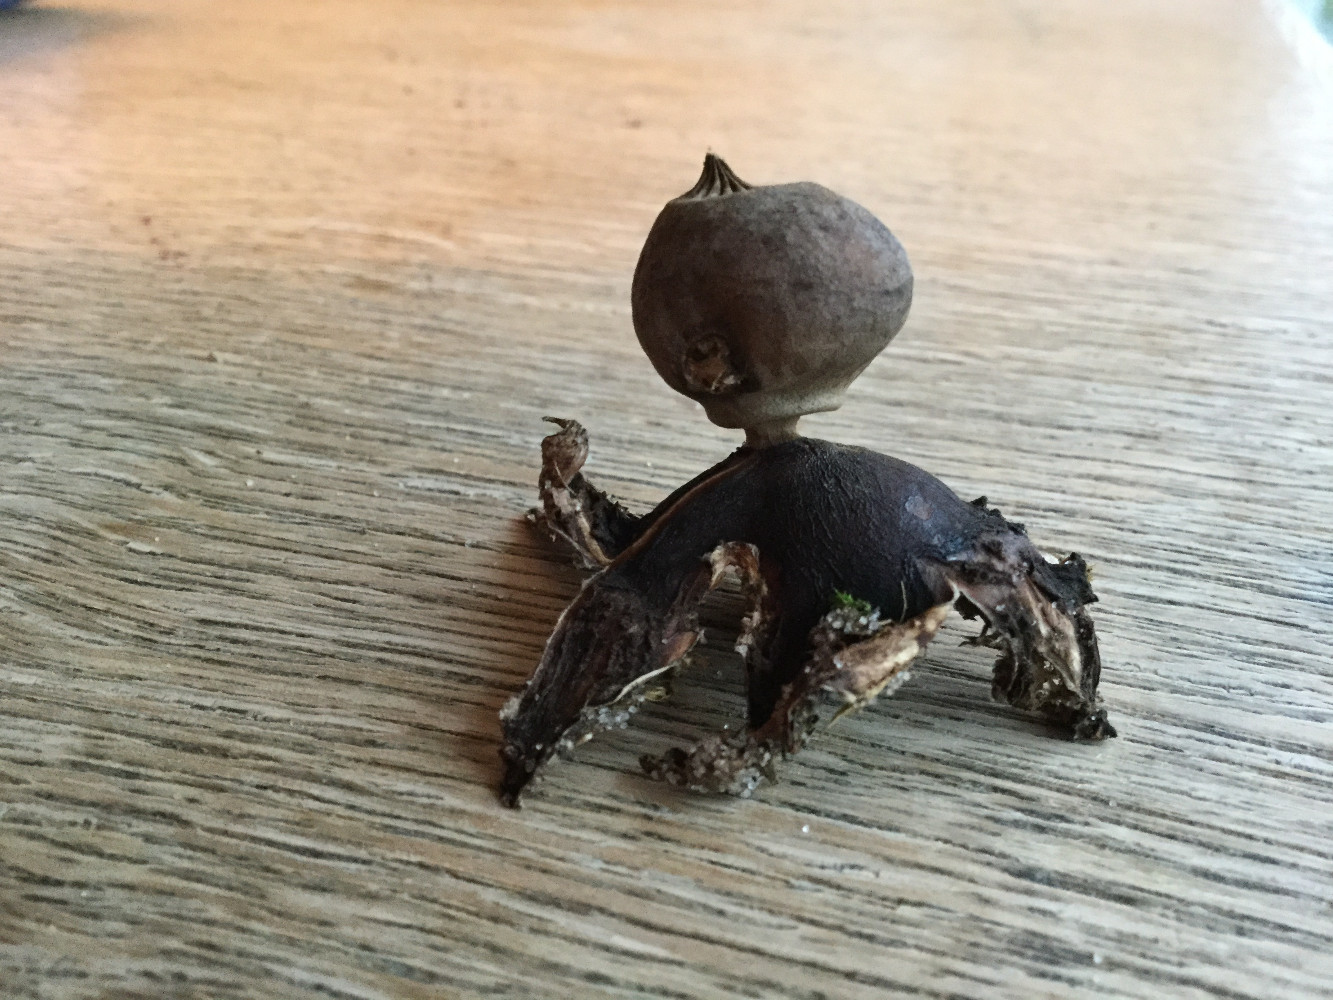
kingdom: Fungi
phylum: Basidiomycota
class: Agaricomycetes
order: Geastrales
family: Geastraceae
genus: Geastrum
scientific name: Geastrum striatum
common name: dværg-stjernebold
